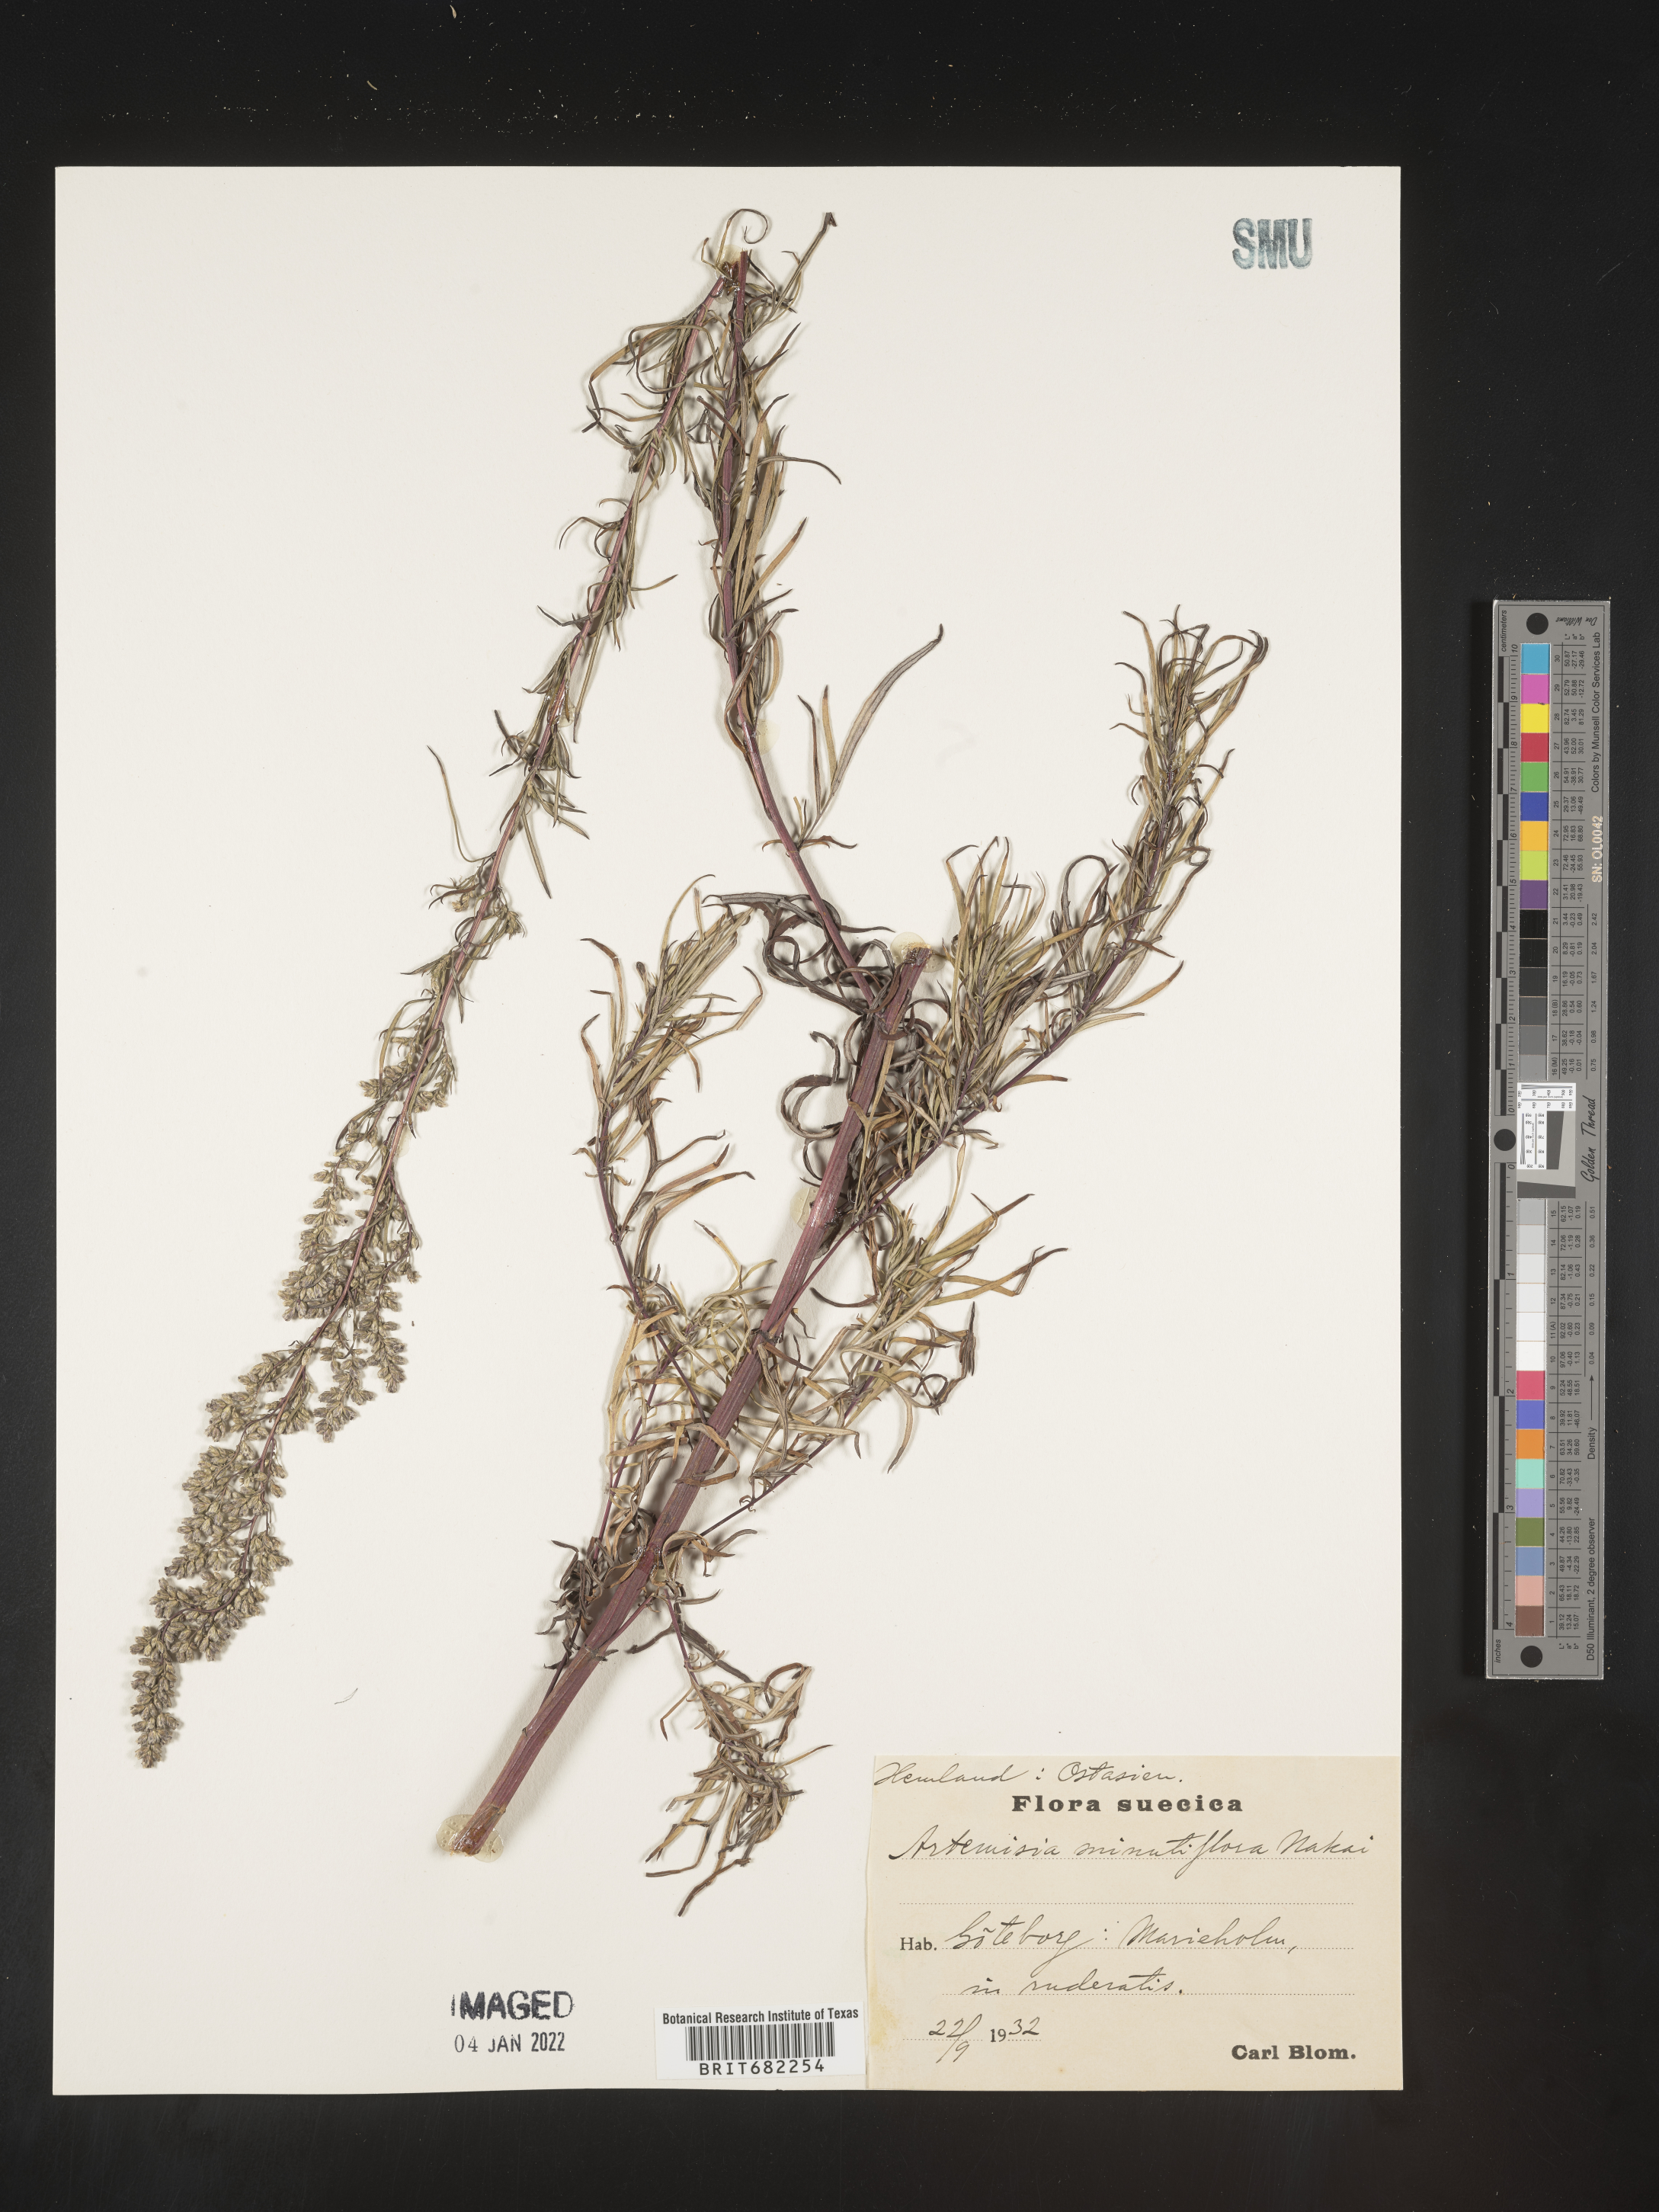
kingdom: Plantae
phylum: Tracheophyta
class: Magnoliopsida
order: Asterales
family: Asteraceae
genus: Artemisia
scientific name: Artemisia
